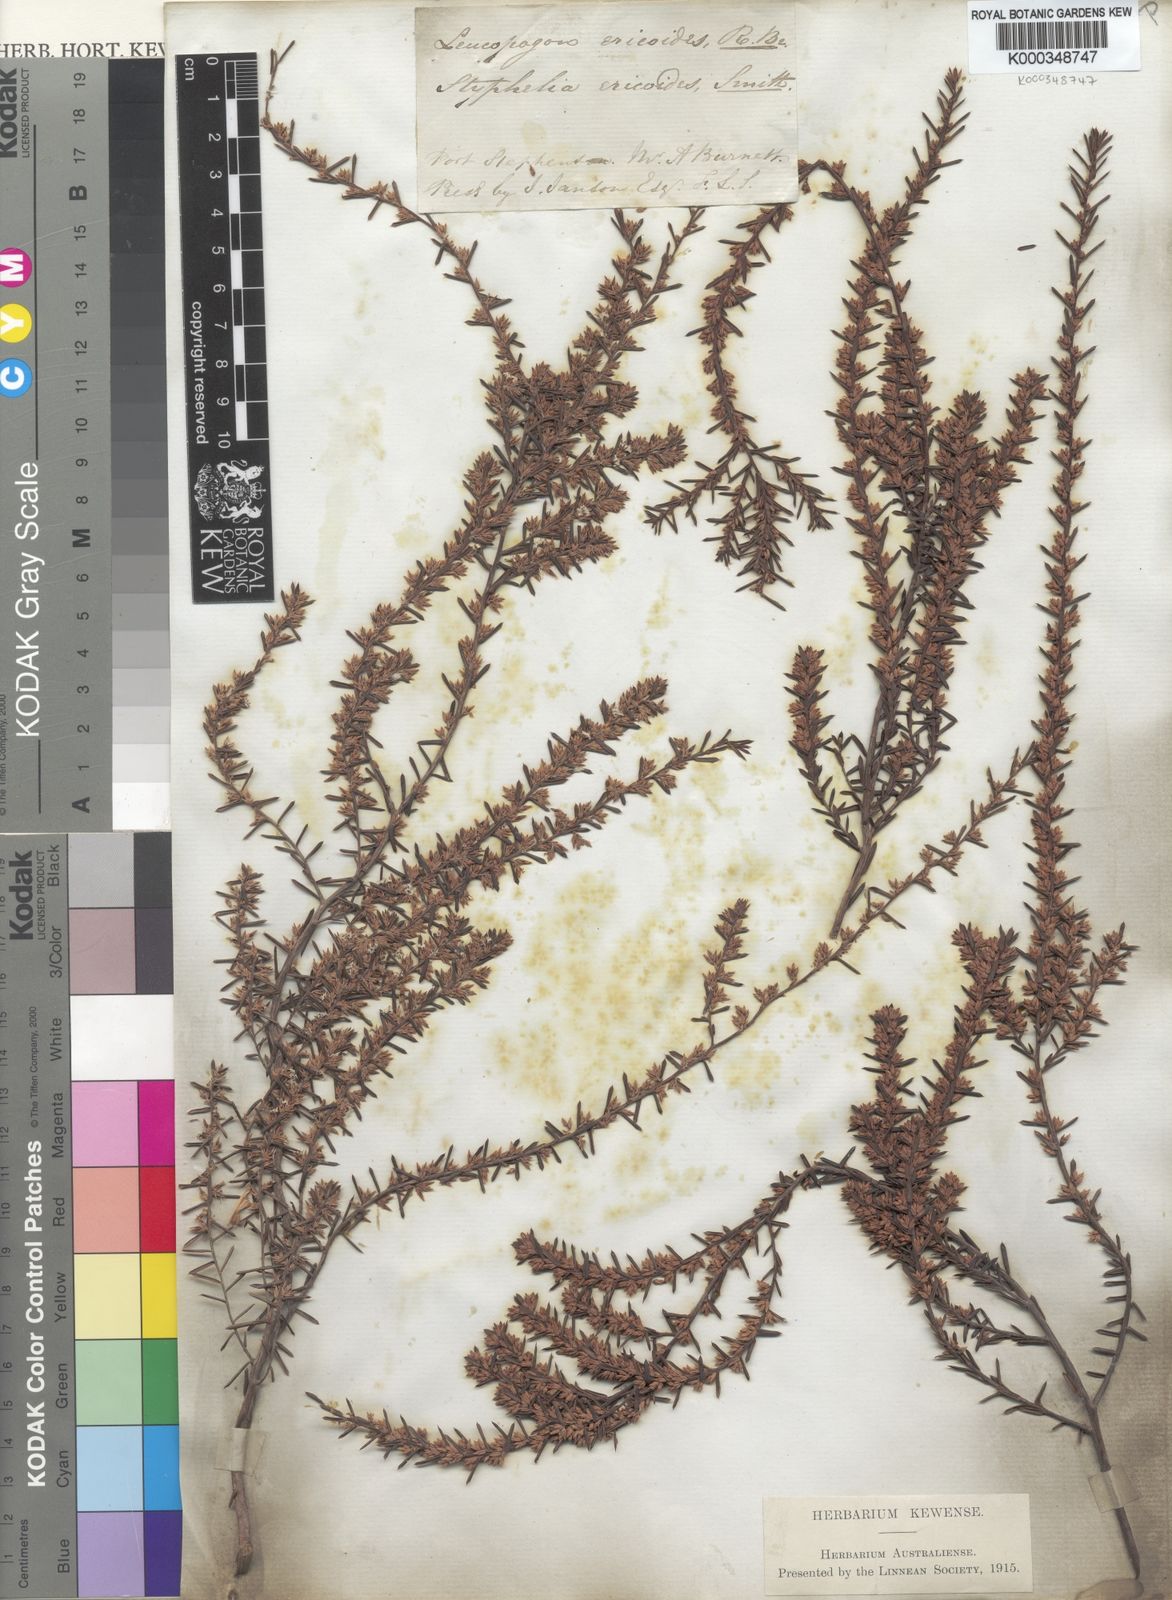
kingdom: Plantae
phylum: Tracheophyta
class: Magnoliopsida
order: Ericales
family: Ericaceae
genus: Styphelia
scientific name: Styphelia ericoides
